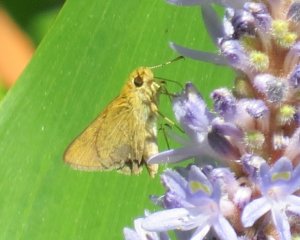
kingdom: Animalia
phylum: Arthropoda
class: Insecta
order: Lepidoptera
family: Hesperiidae
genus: Nastra
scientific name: Nastra lherminier
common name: Swarthy Skipper
